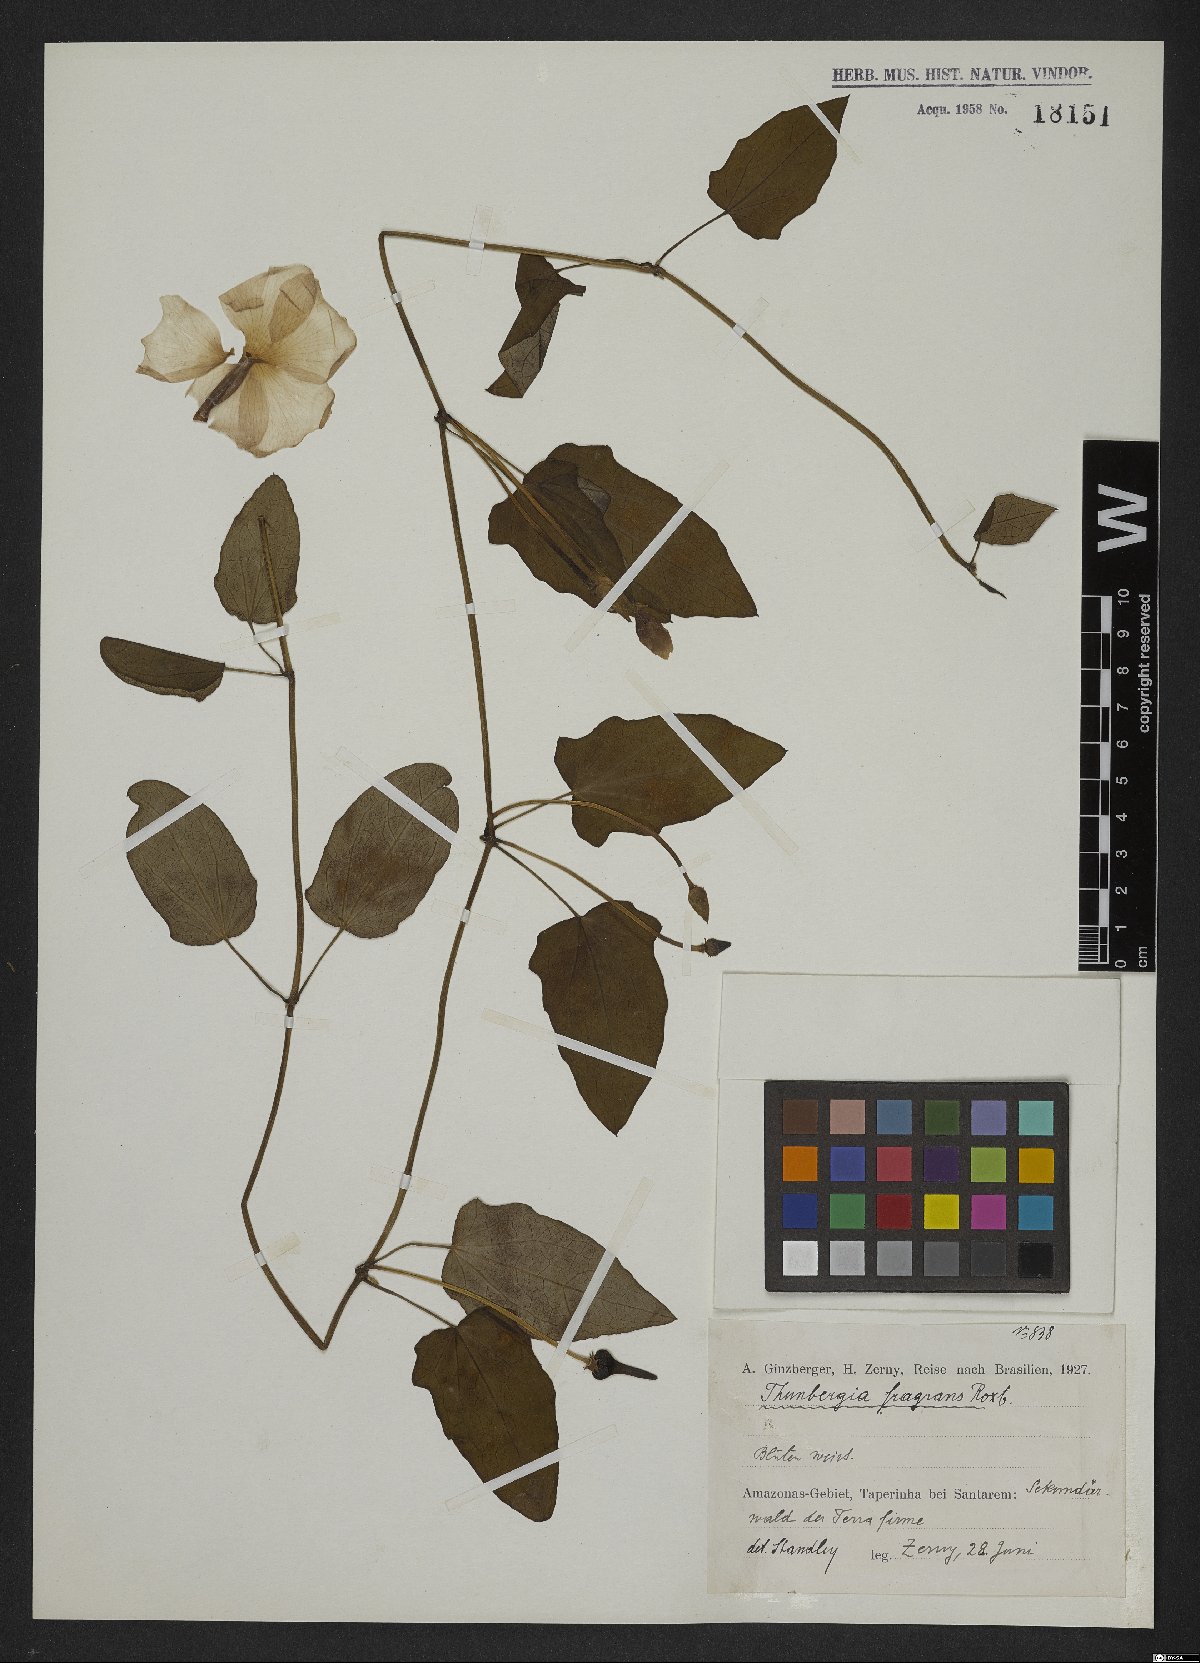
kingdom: Plantae
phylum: Tracheophyta
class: Magnoliopsida
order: Lamiales
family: Acanthaceae
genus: Thunbergia
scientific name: Thunbergia fragrans
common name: Whitelady
